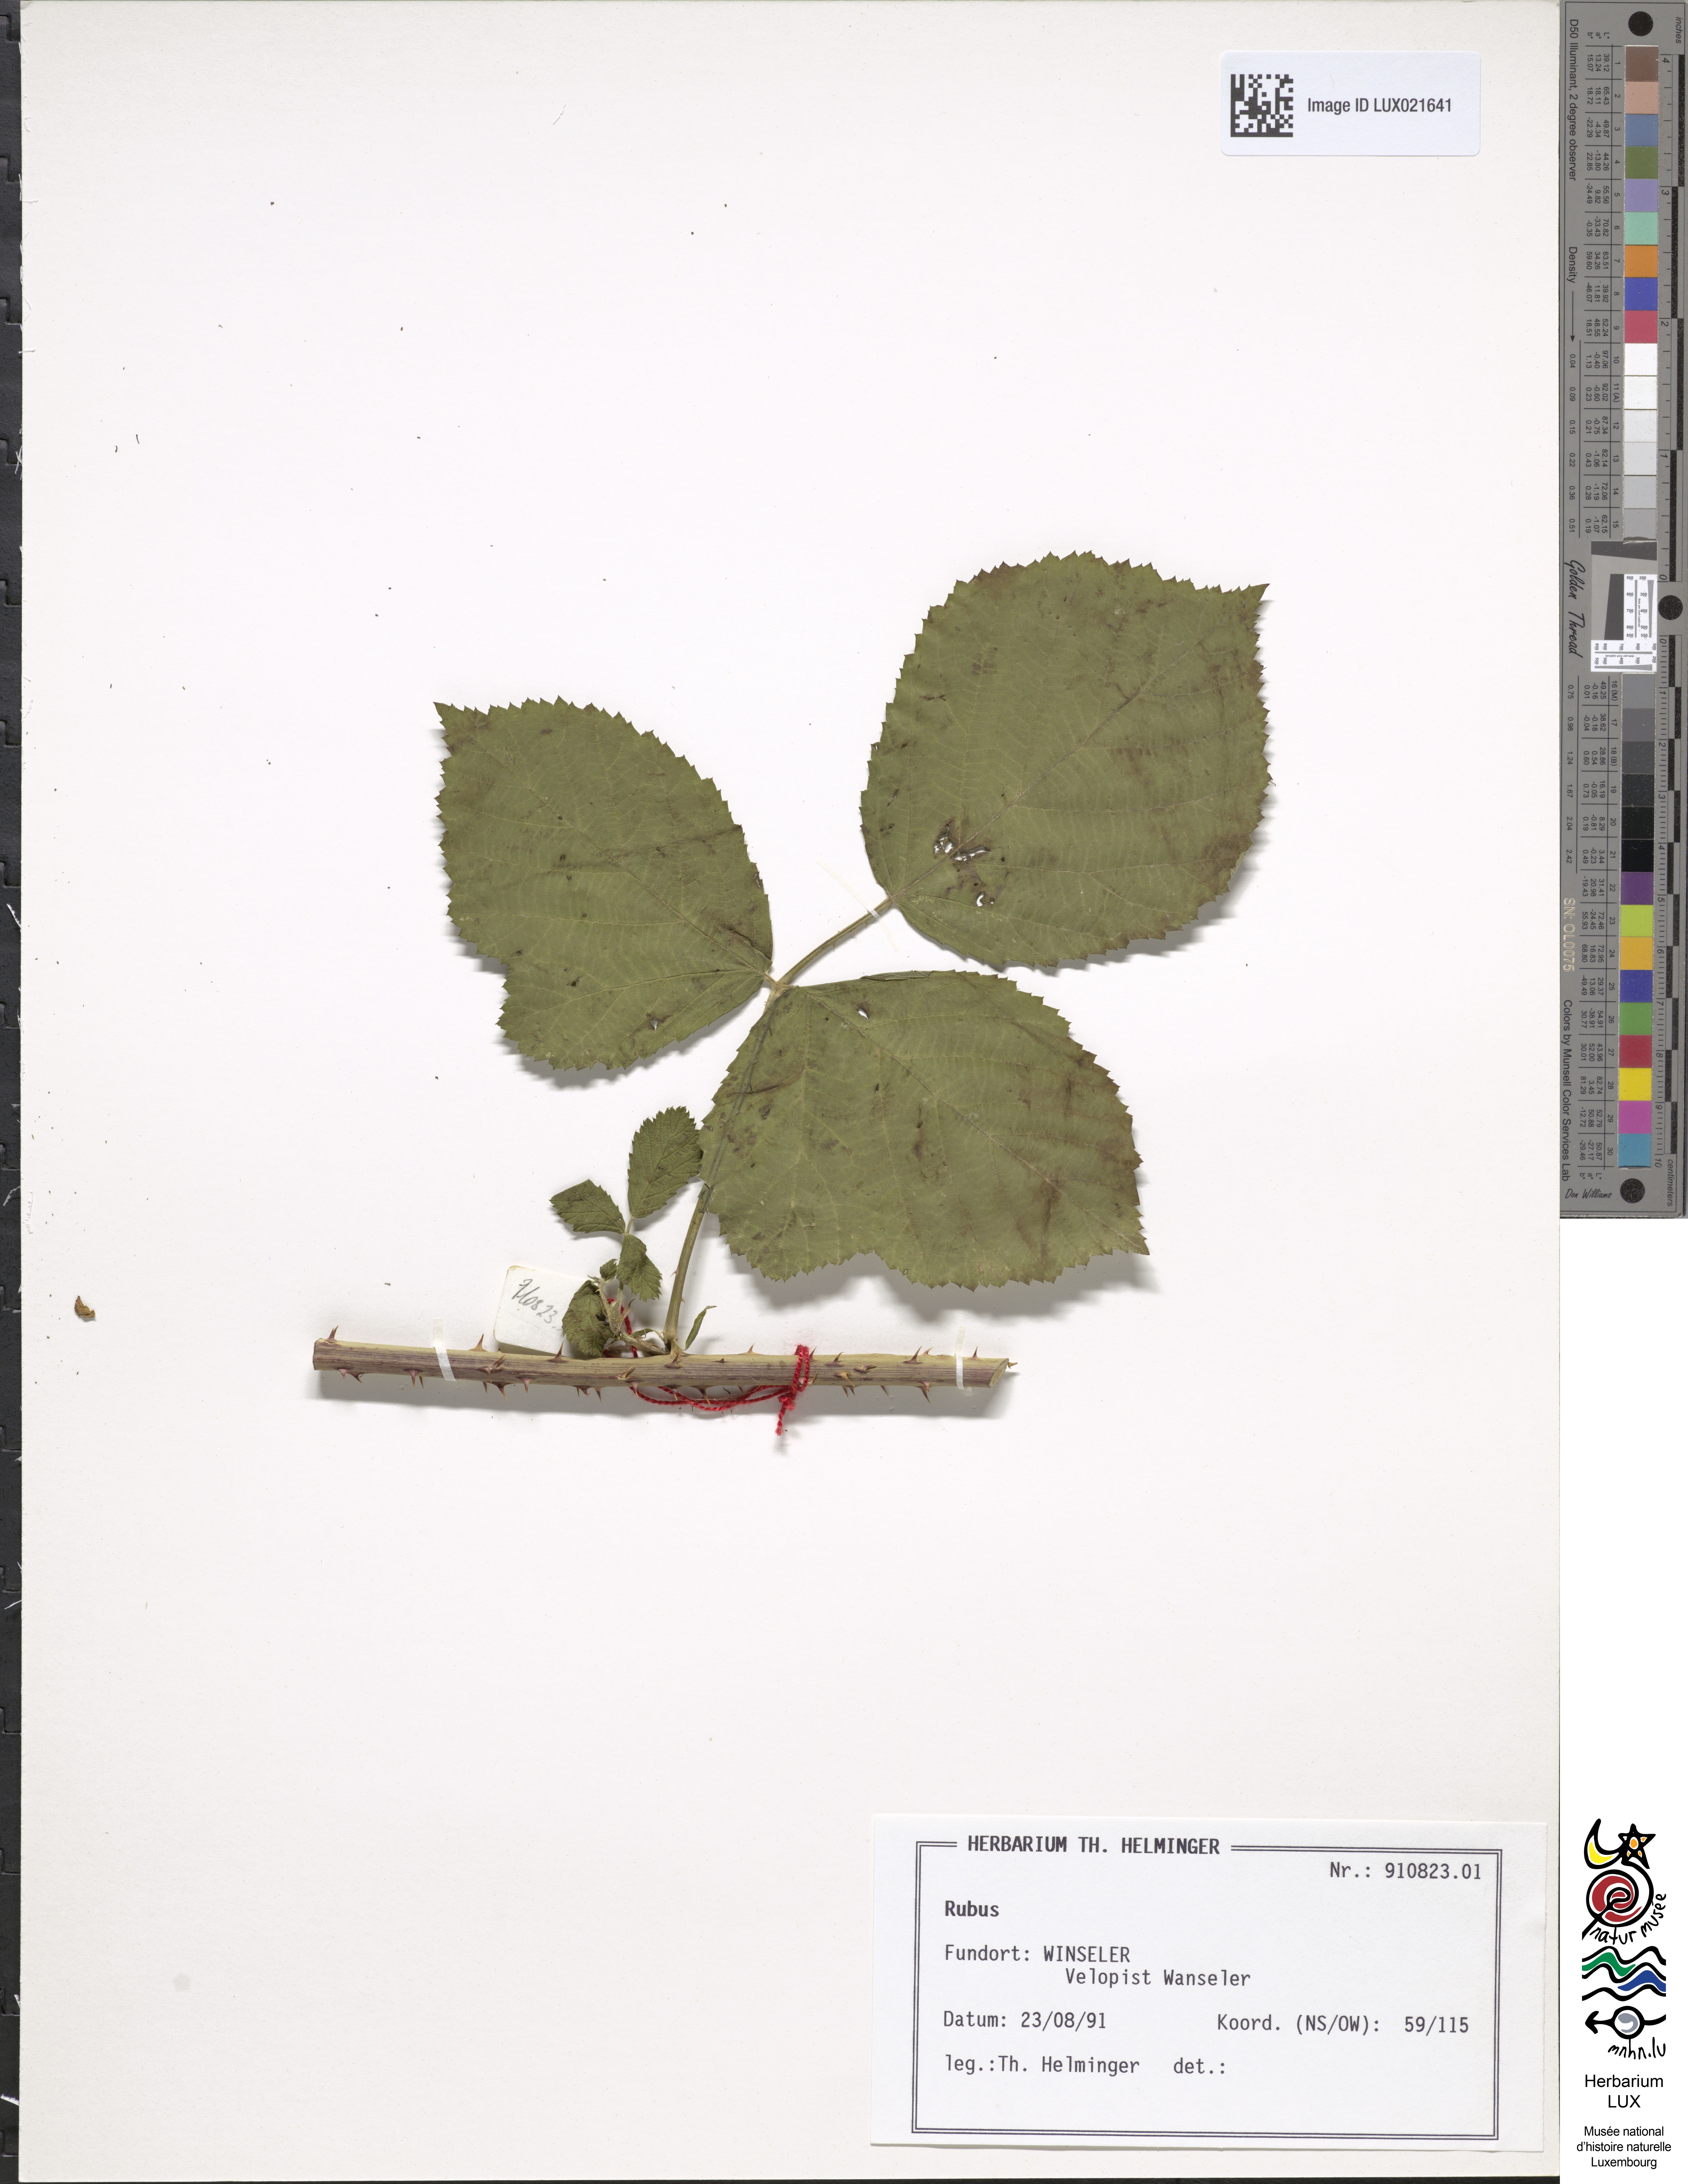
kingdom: Plantae
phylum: Tracheophyta
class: Magnoliopsida
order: Rosales
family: Rosaceae
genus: Rubus
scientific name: Rubus
